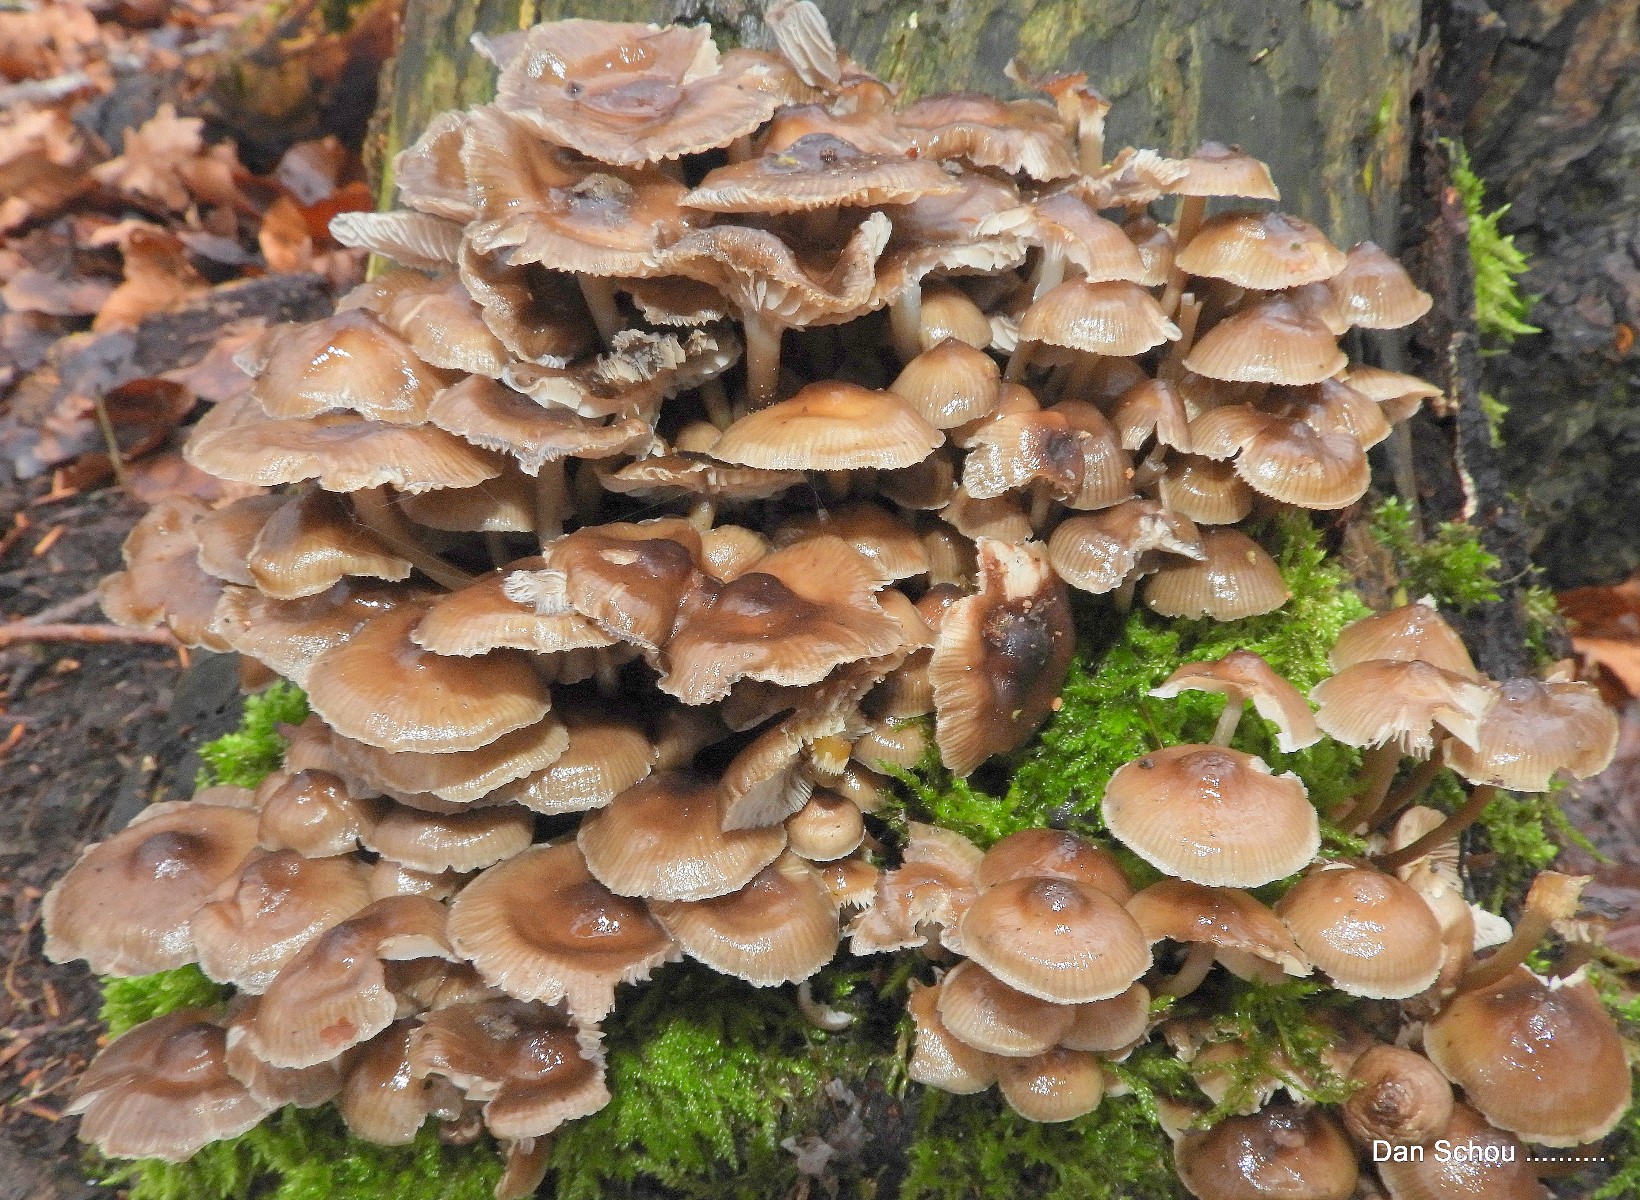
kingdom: Fungi
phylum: Basidiomycota
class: Agaricomycetes
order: Agaricales
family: Mycenaceae
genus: Mycena
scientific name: Mycena tintinnabulum
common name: vinter-huesvamp
